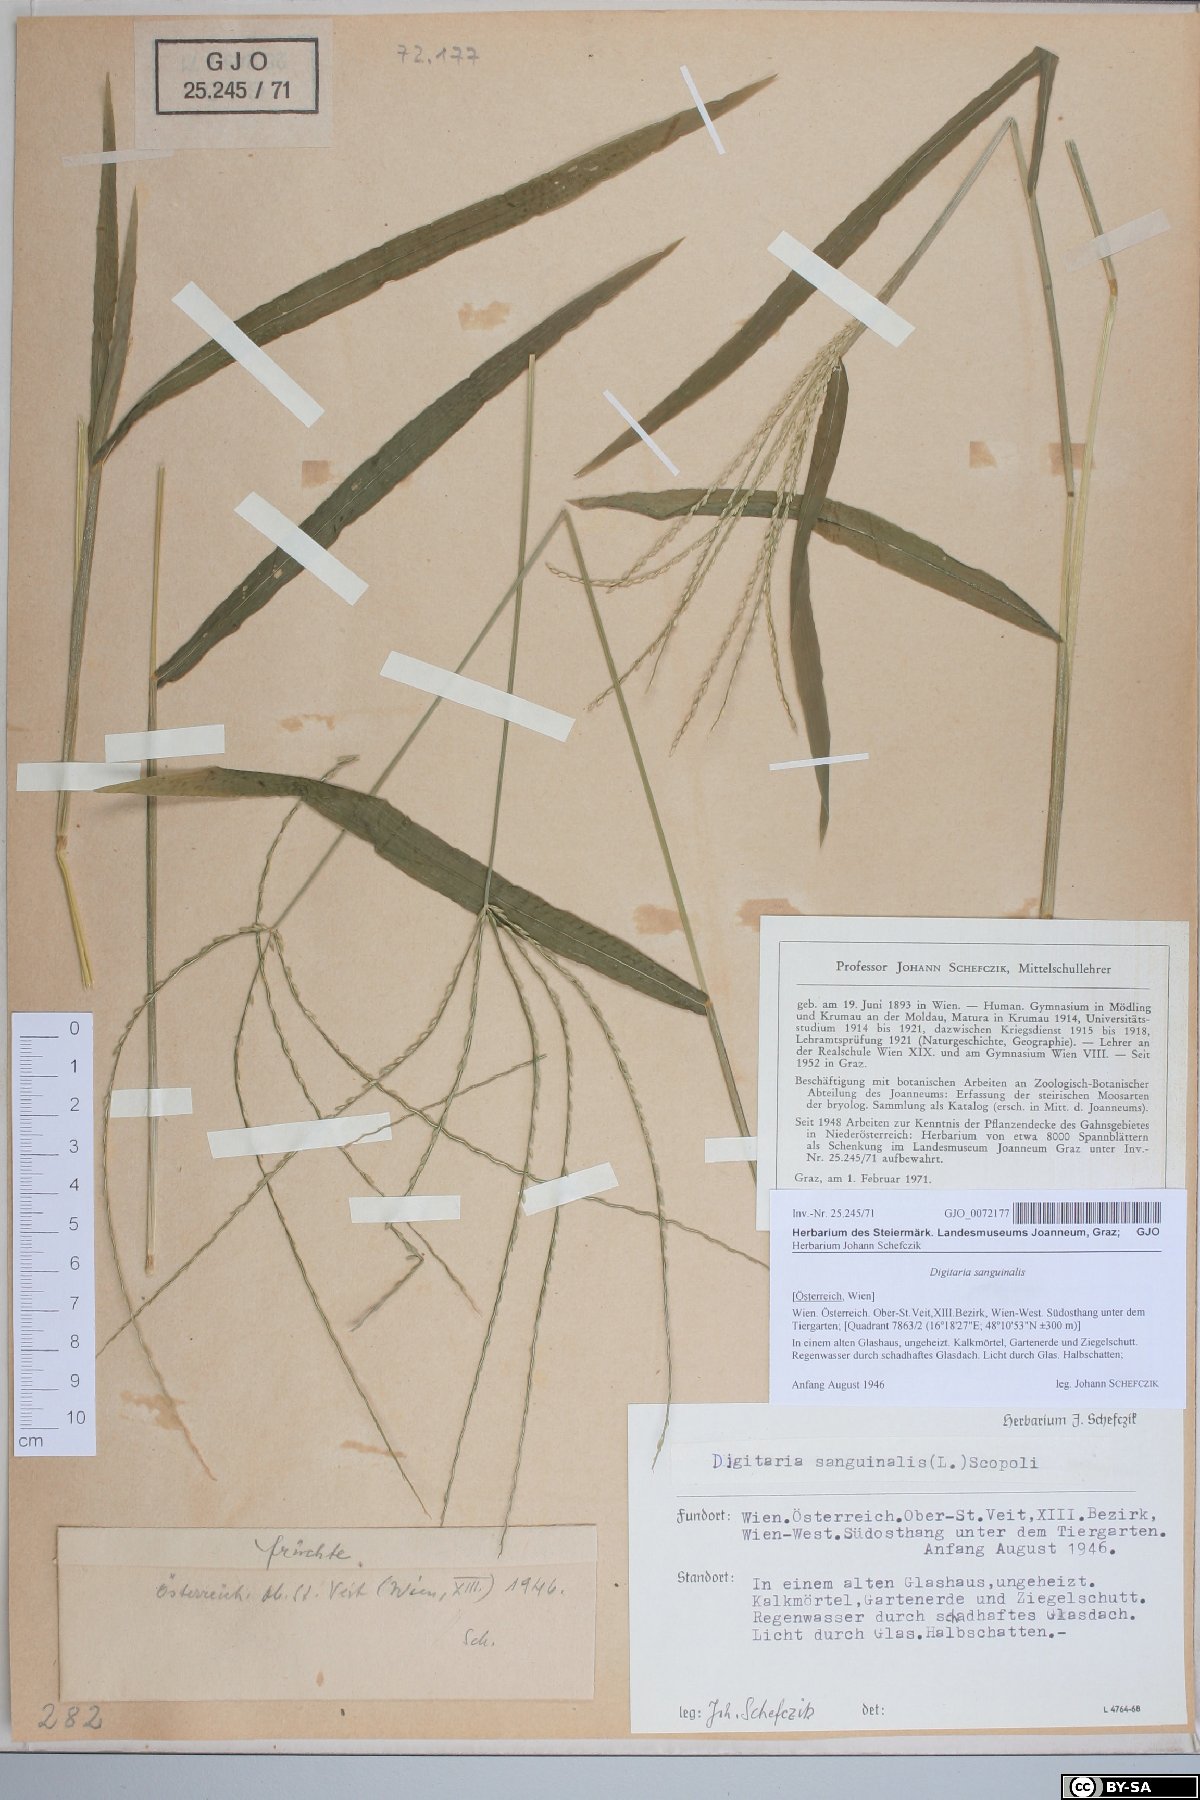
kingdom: Plantae
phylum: Tracheophyta
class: Liliopsida
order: Poales
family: Poaceae
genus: Digitaria
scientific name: Digitaria sanguinalis
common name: Hairy crabgrass
